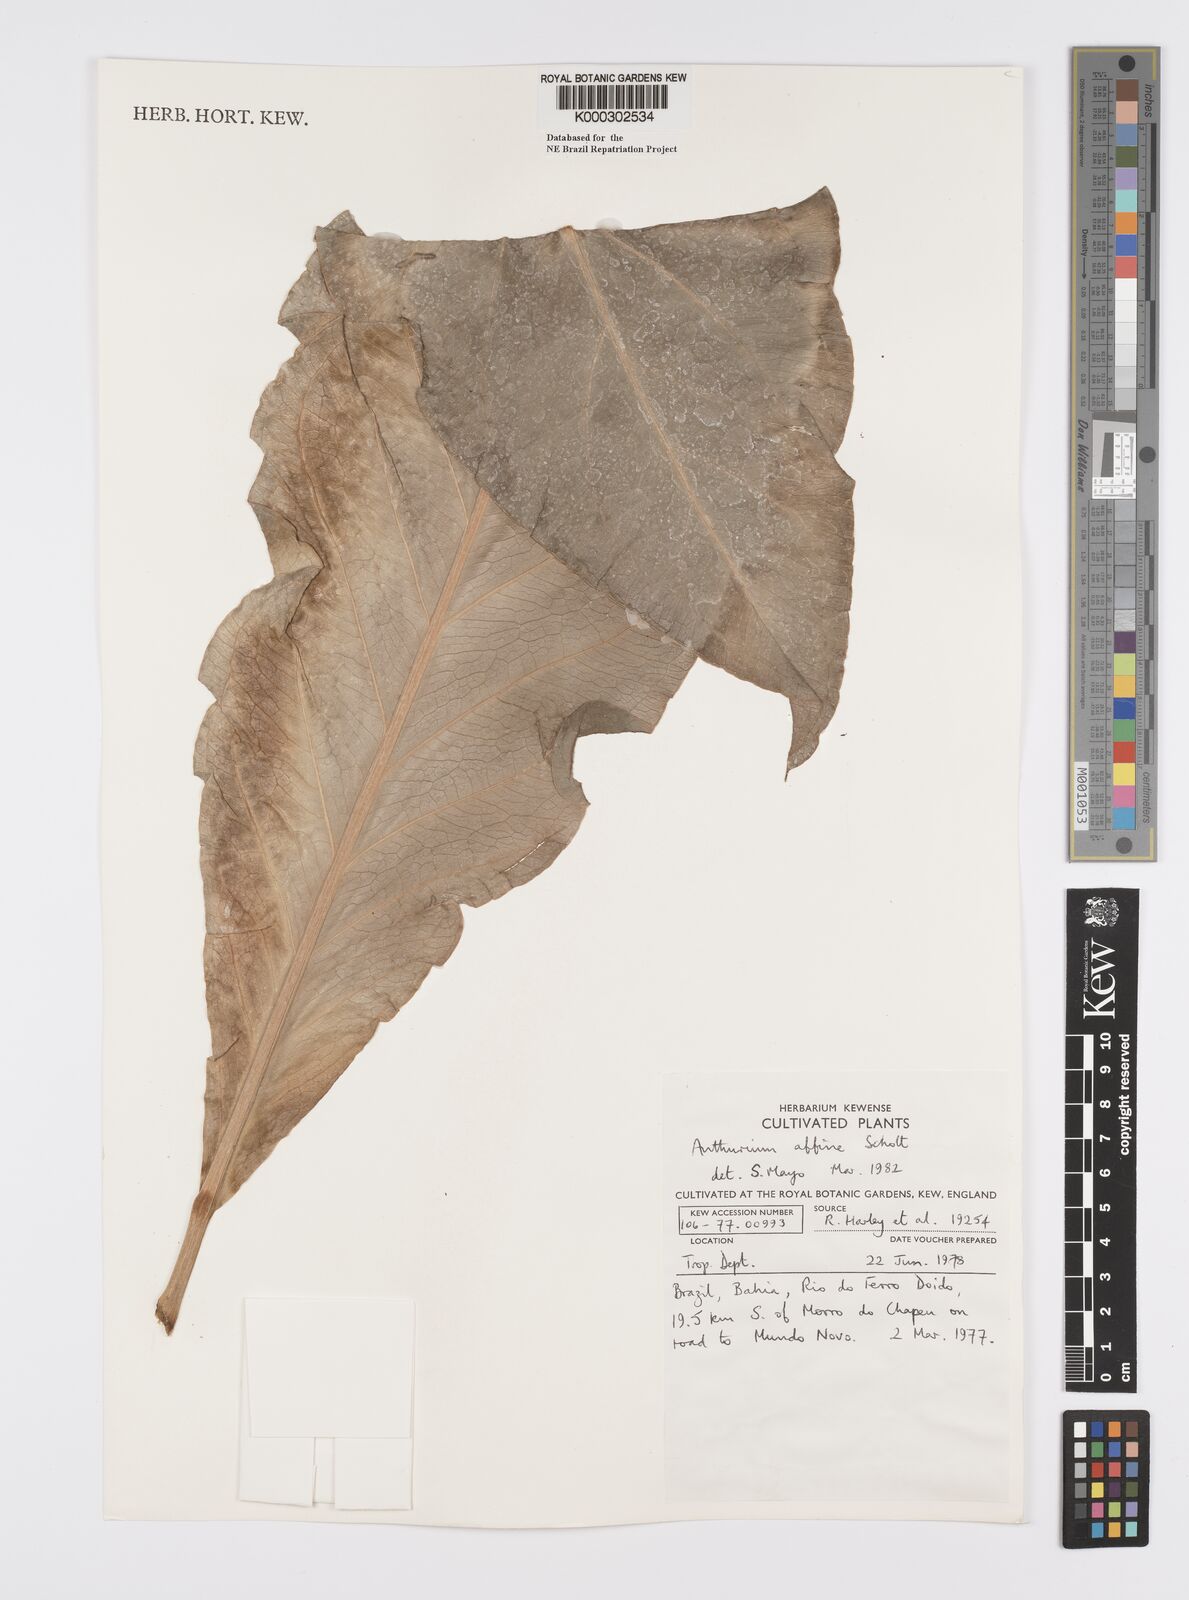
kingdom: Plantae
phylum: Tracheophyta
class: Liliopsida
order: Alismatales
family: Araceae
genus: Anthurium
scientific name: Anthurium affine
